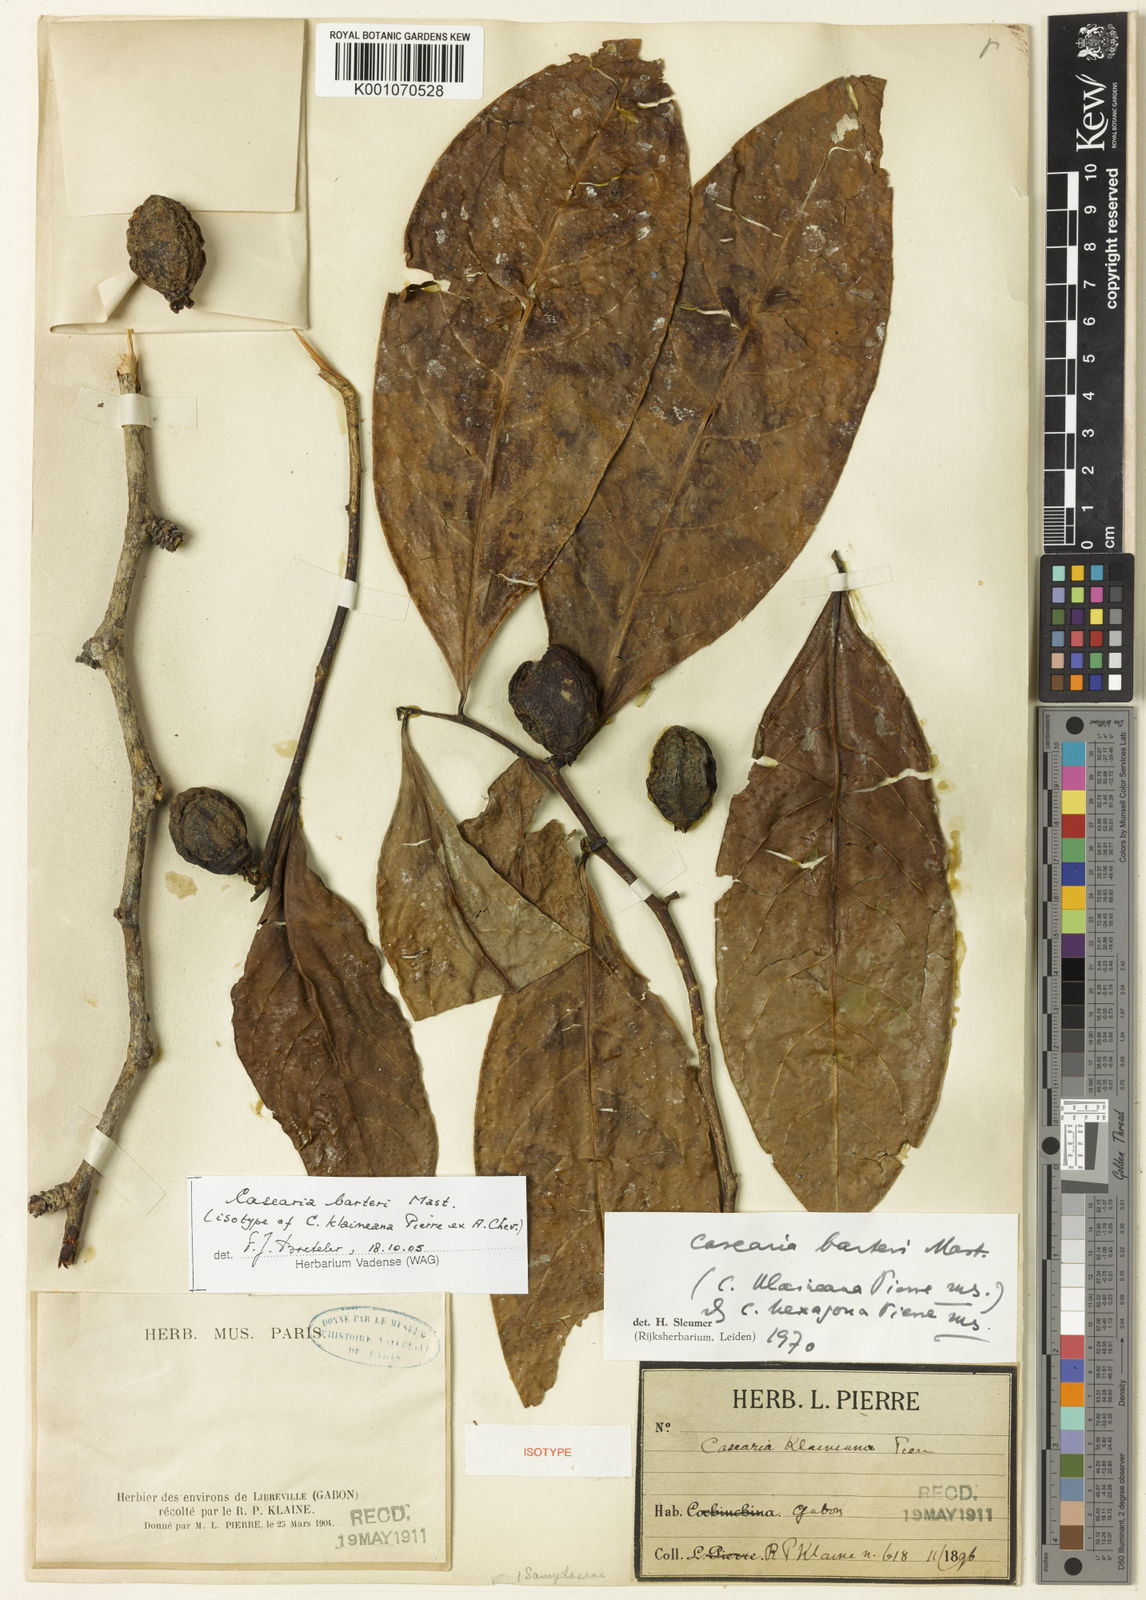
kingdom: Plantae
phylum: Tracheophyta
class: Magnoliopsida
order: Malpighiales
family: Salicaceae
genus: Casearia
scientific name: Casearia barteri
